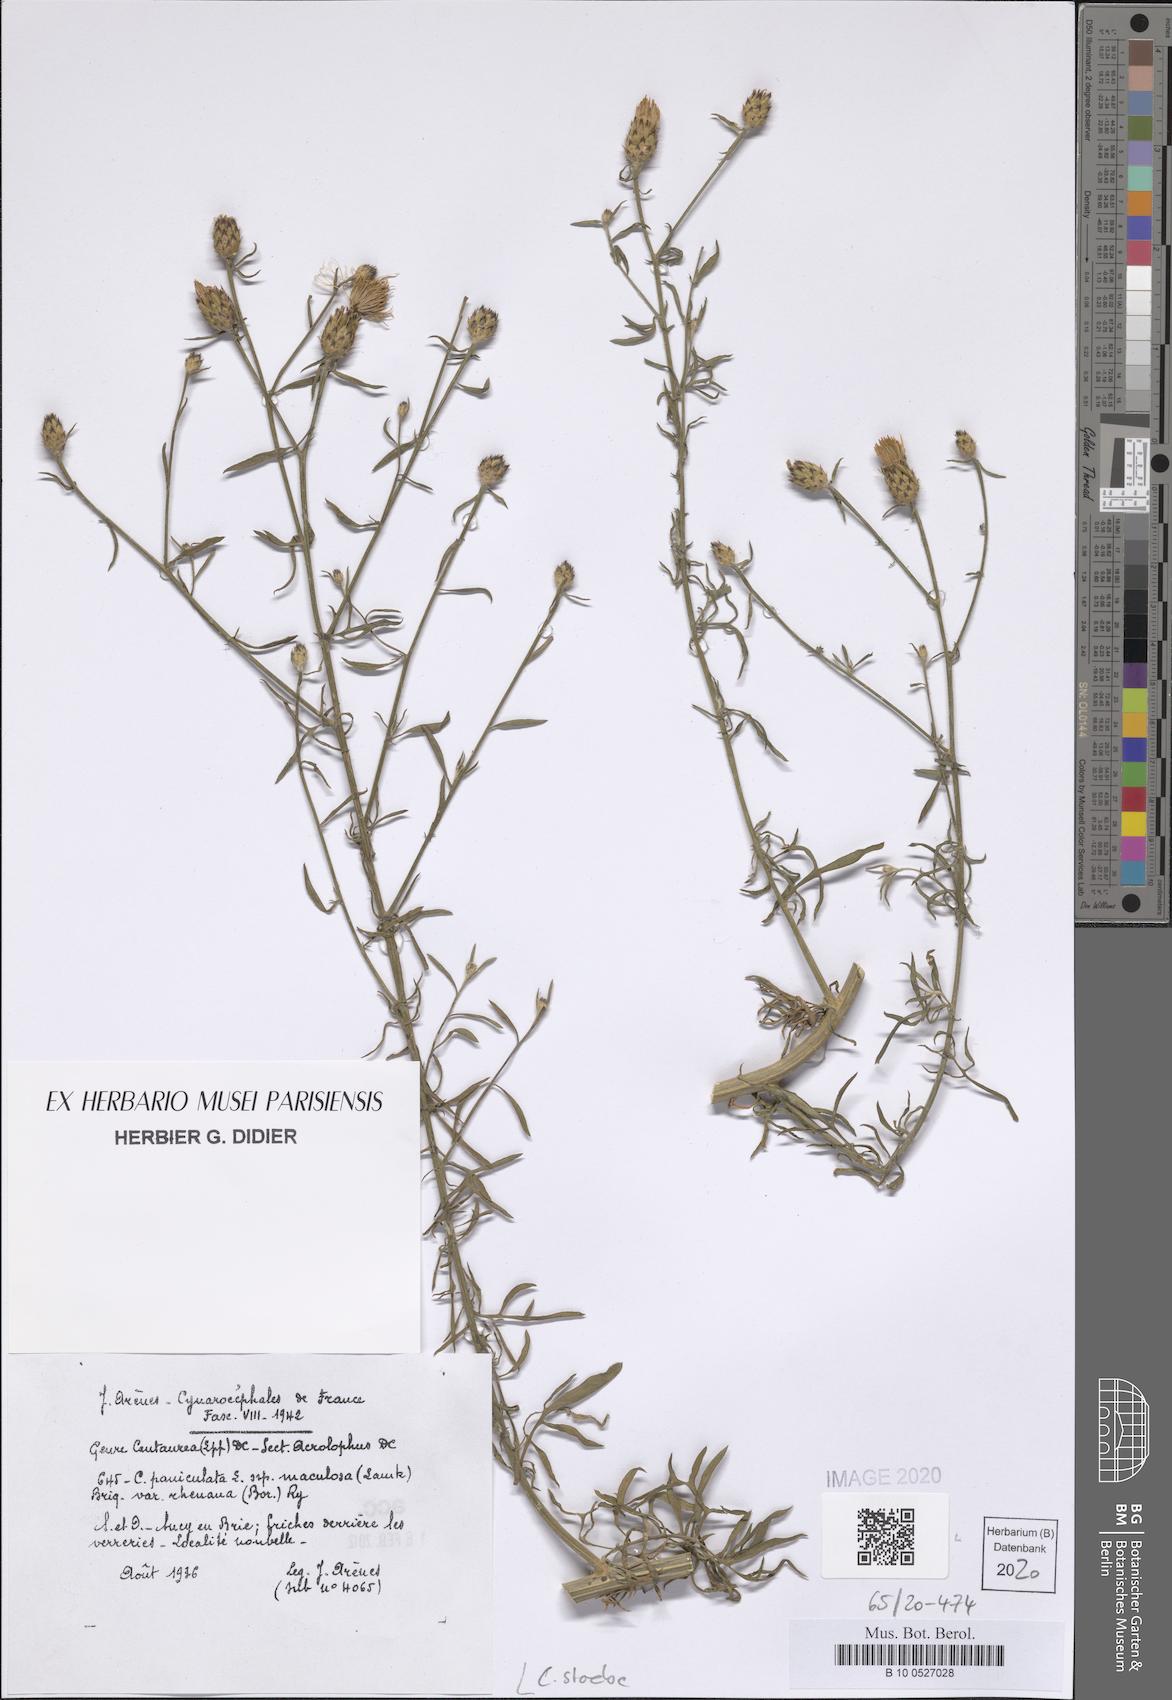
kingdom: Plantae
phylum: Tracheophyta
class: Magnoliopsida
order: Asterales
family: Asteraceae
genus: Centaurea
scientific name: Centaurea stoebe
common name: Spotted knapweed
